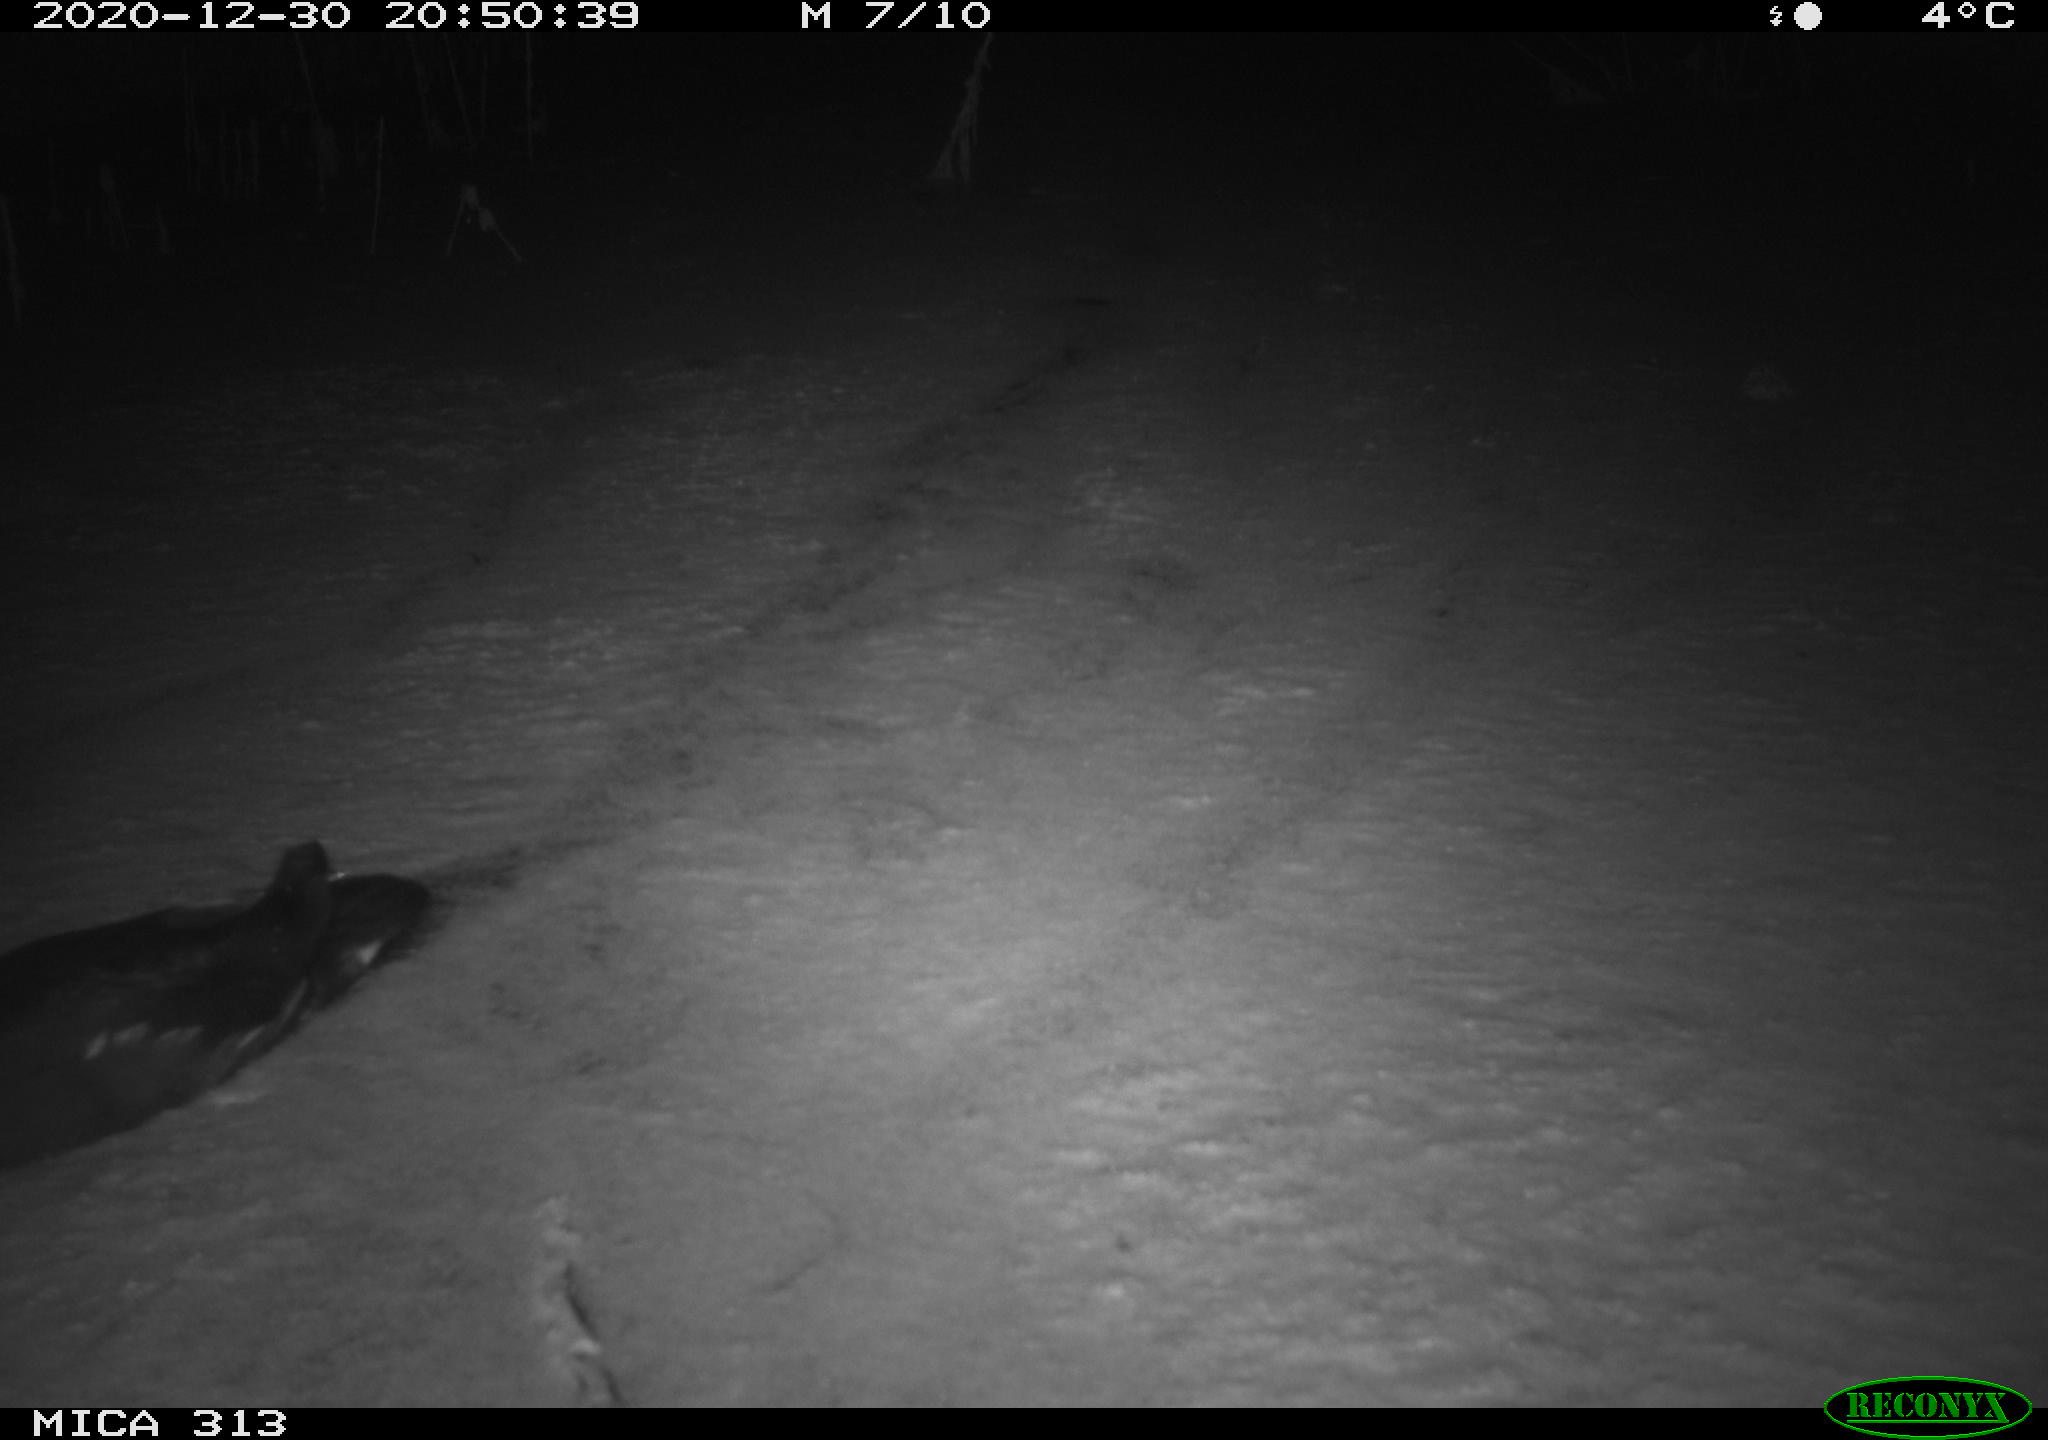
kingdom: Animalia
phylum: Chordata
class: Aves
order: Gruiformes
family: Rallidae
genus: Fulica
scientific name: Fulica atra
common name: Eurasian coot
